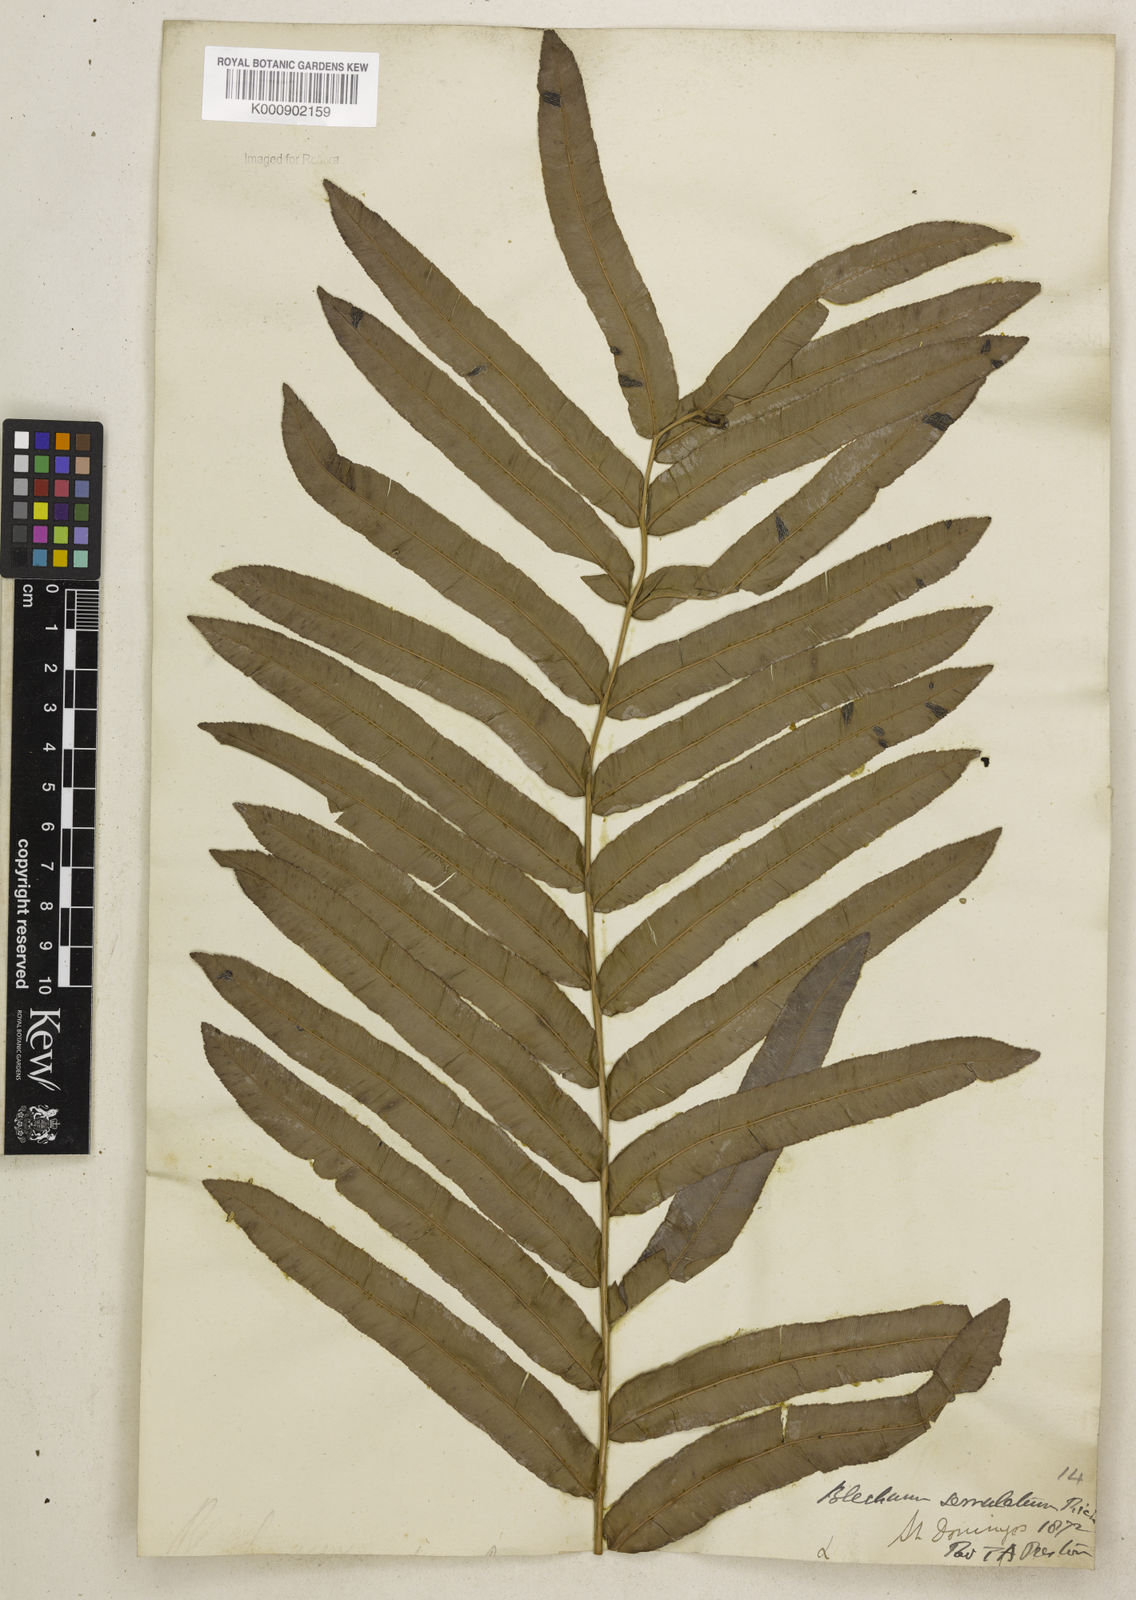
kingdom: Plantae
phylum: Tracheophyta
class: Polypodiopsida
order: Polypodiales
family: Blechnaceae
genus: Telmatoblechnum
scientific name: Telmatoblechnum serrulatum
